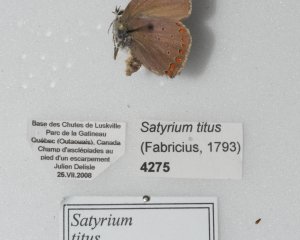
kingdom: Animalia
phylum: Arthropoda
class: Insecta
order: Lepidoptera
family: Lycaenidae
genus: Harkenclenus
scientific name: Harkenclenus titus
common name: Coral Hairstreak
